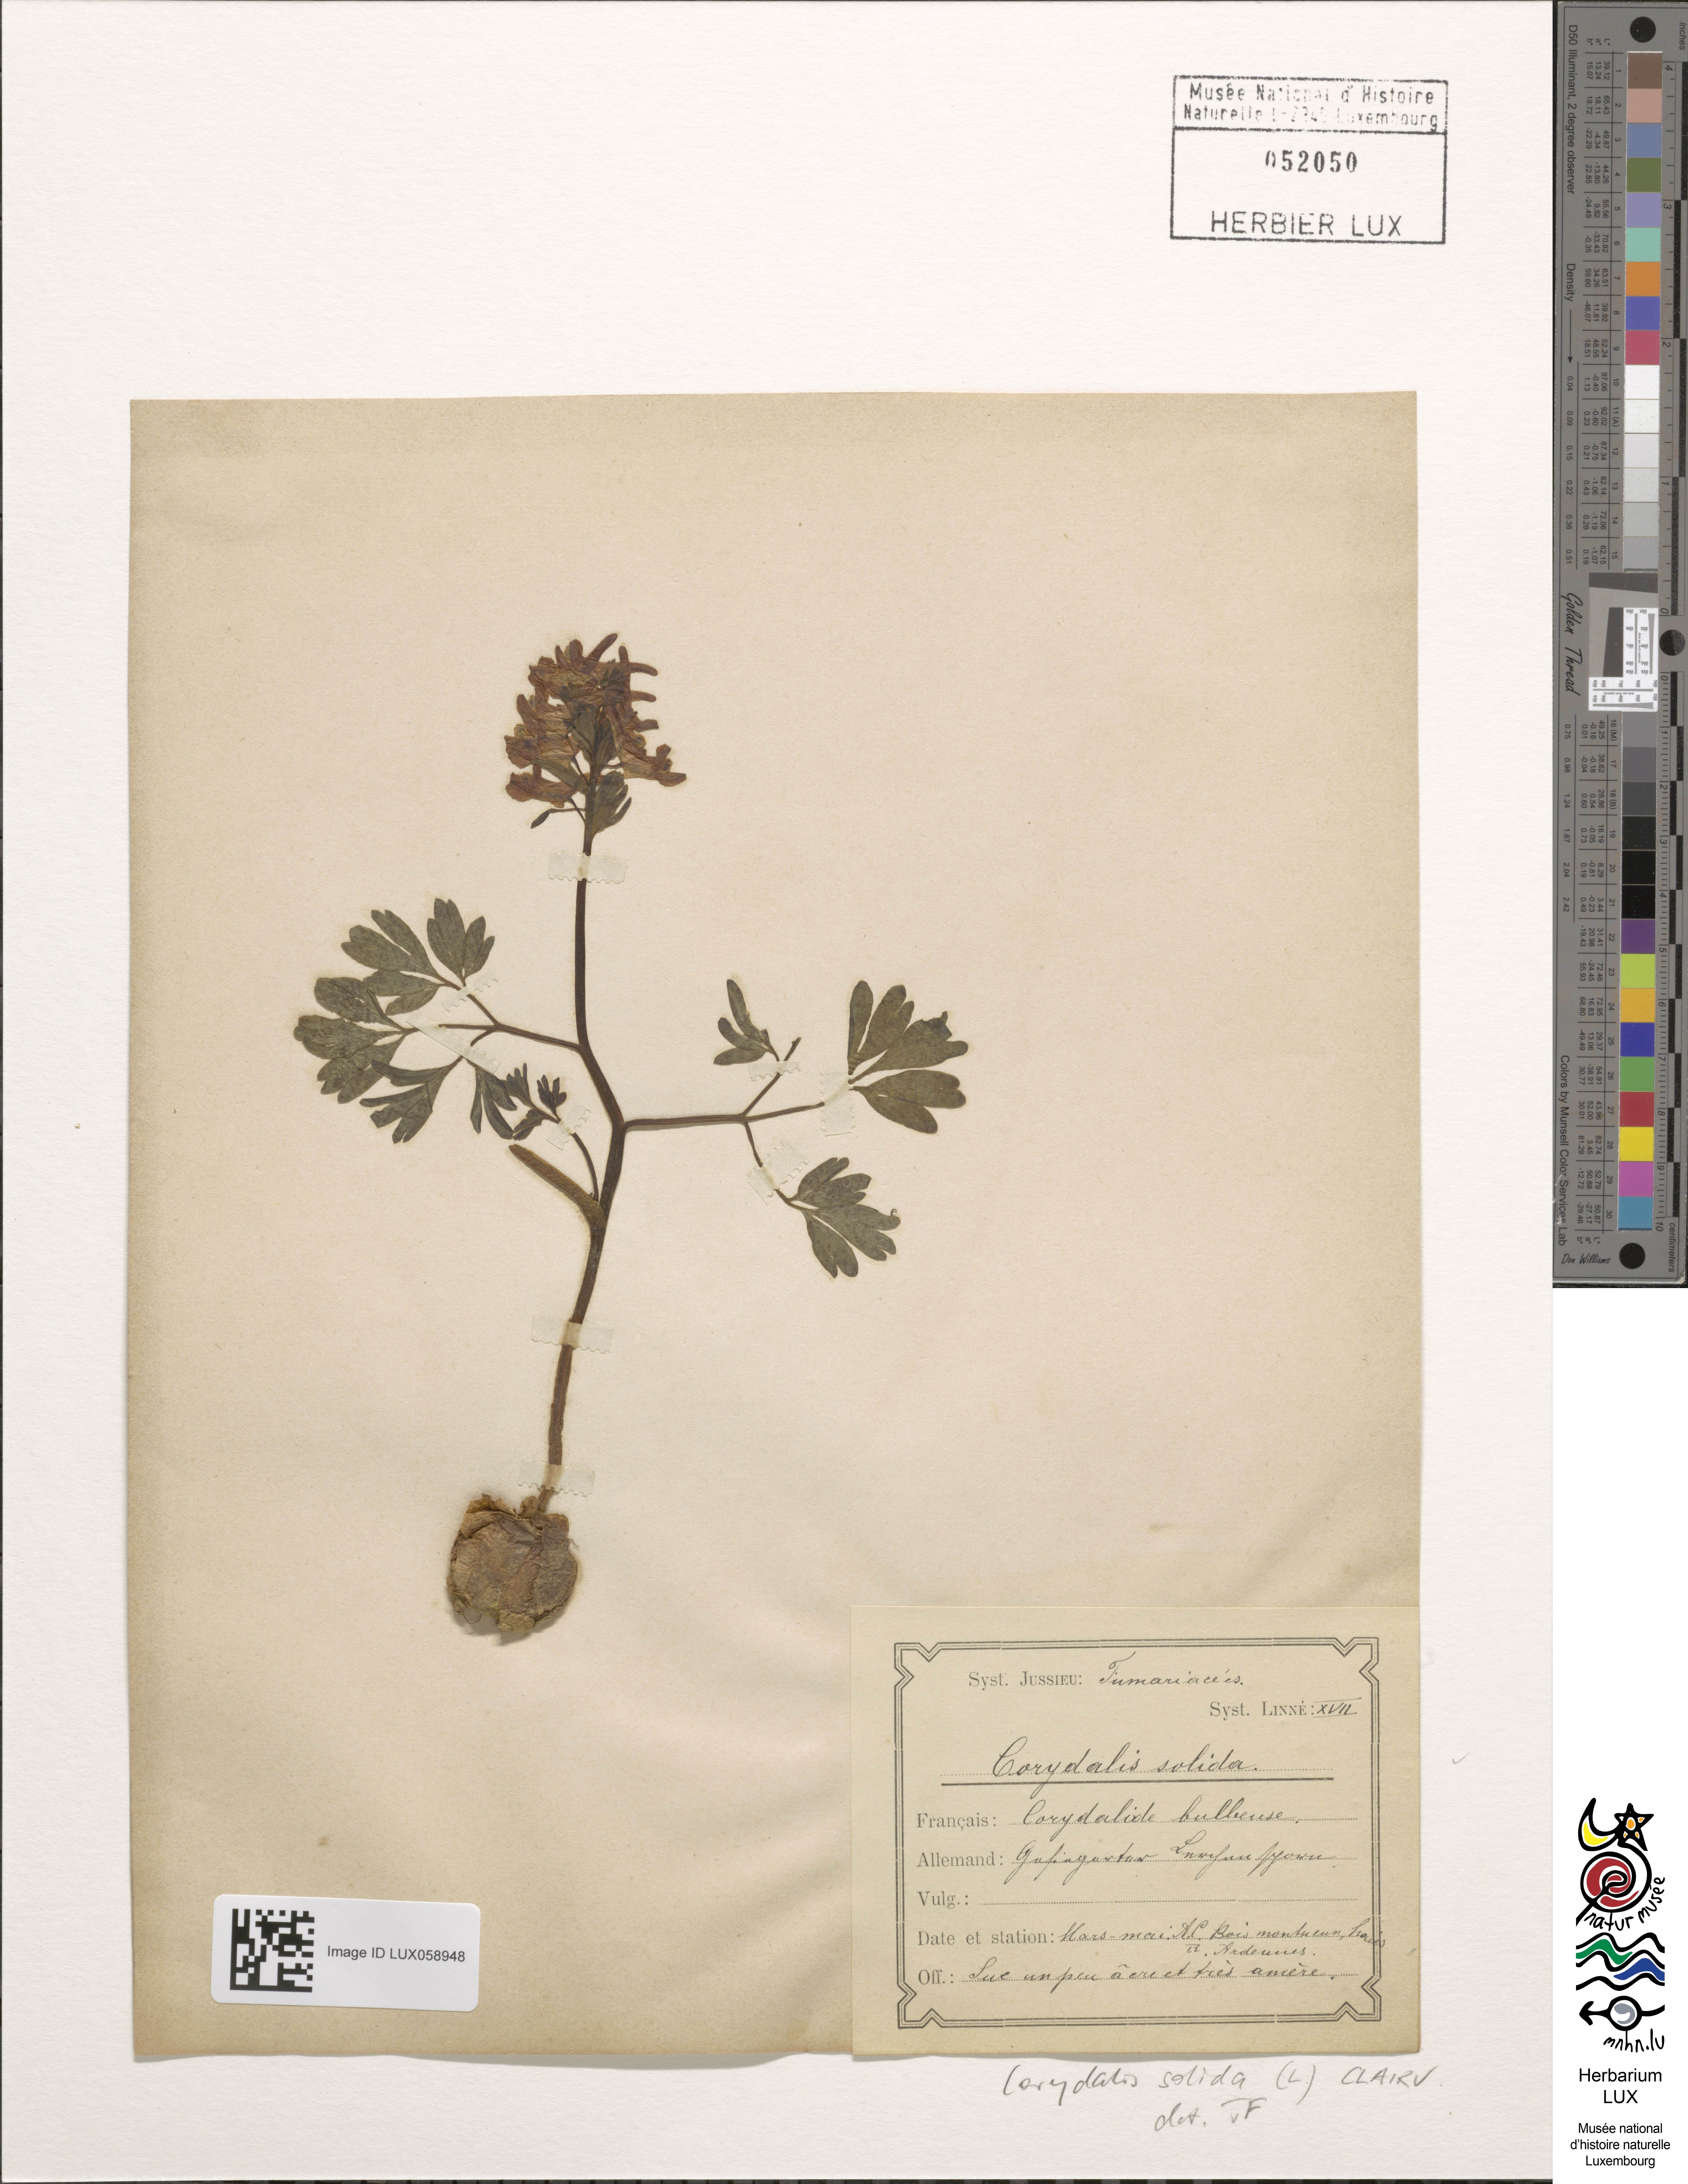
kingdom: Plantae
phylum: Tracheophyta
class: Magnoliopsida
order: Ranunculales
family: Papaveraceae
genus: Corydalis
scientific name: Corydalis solida
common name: Bird-in-a-bush
